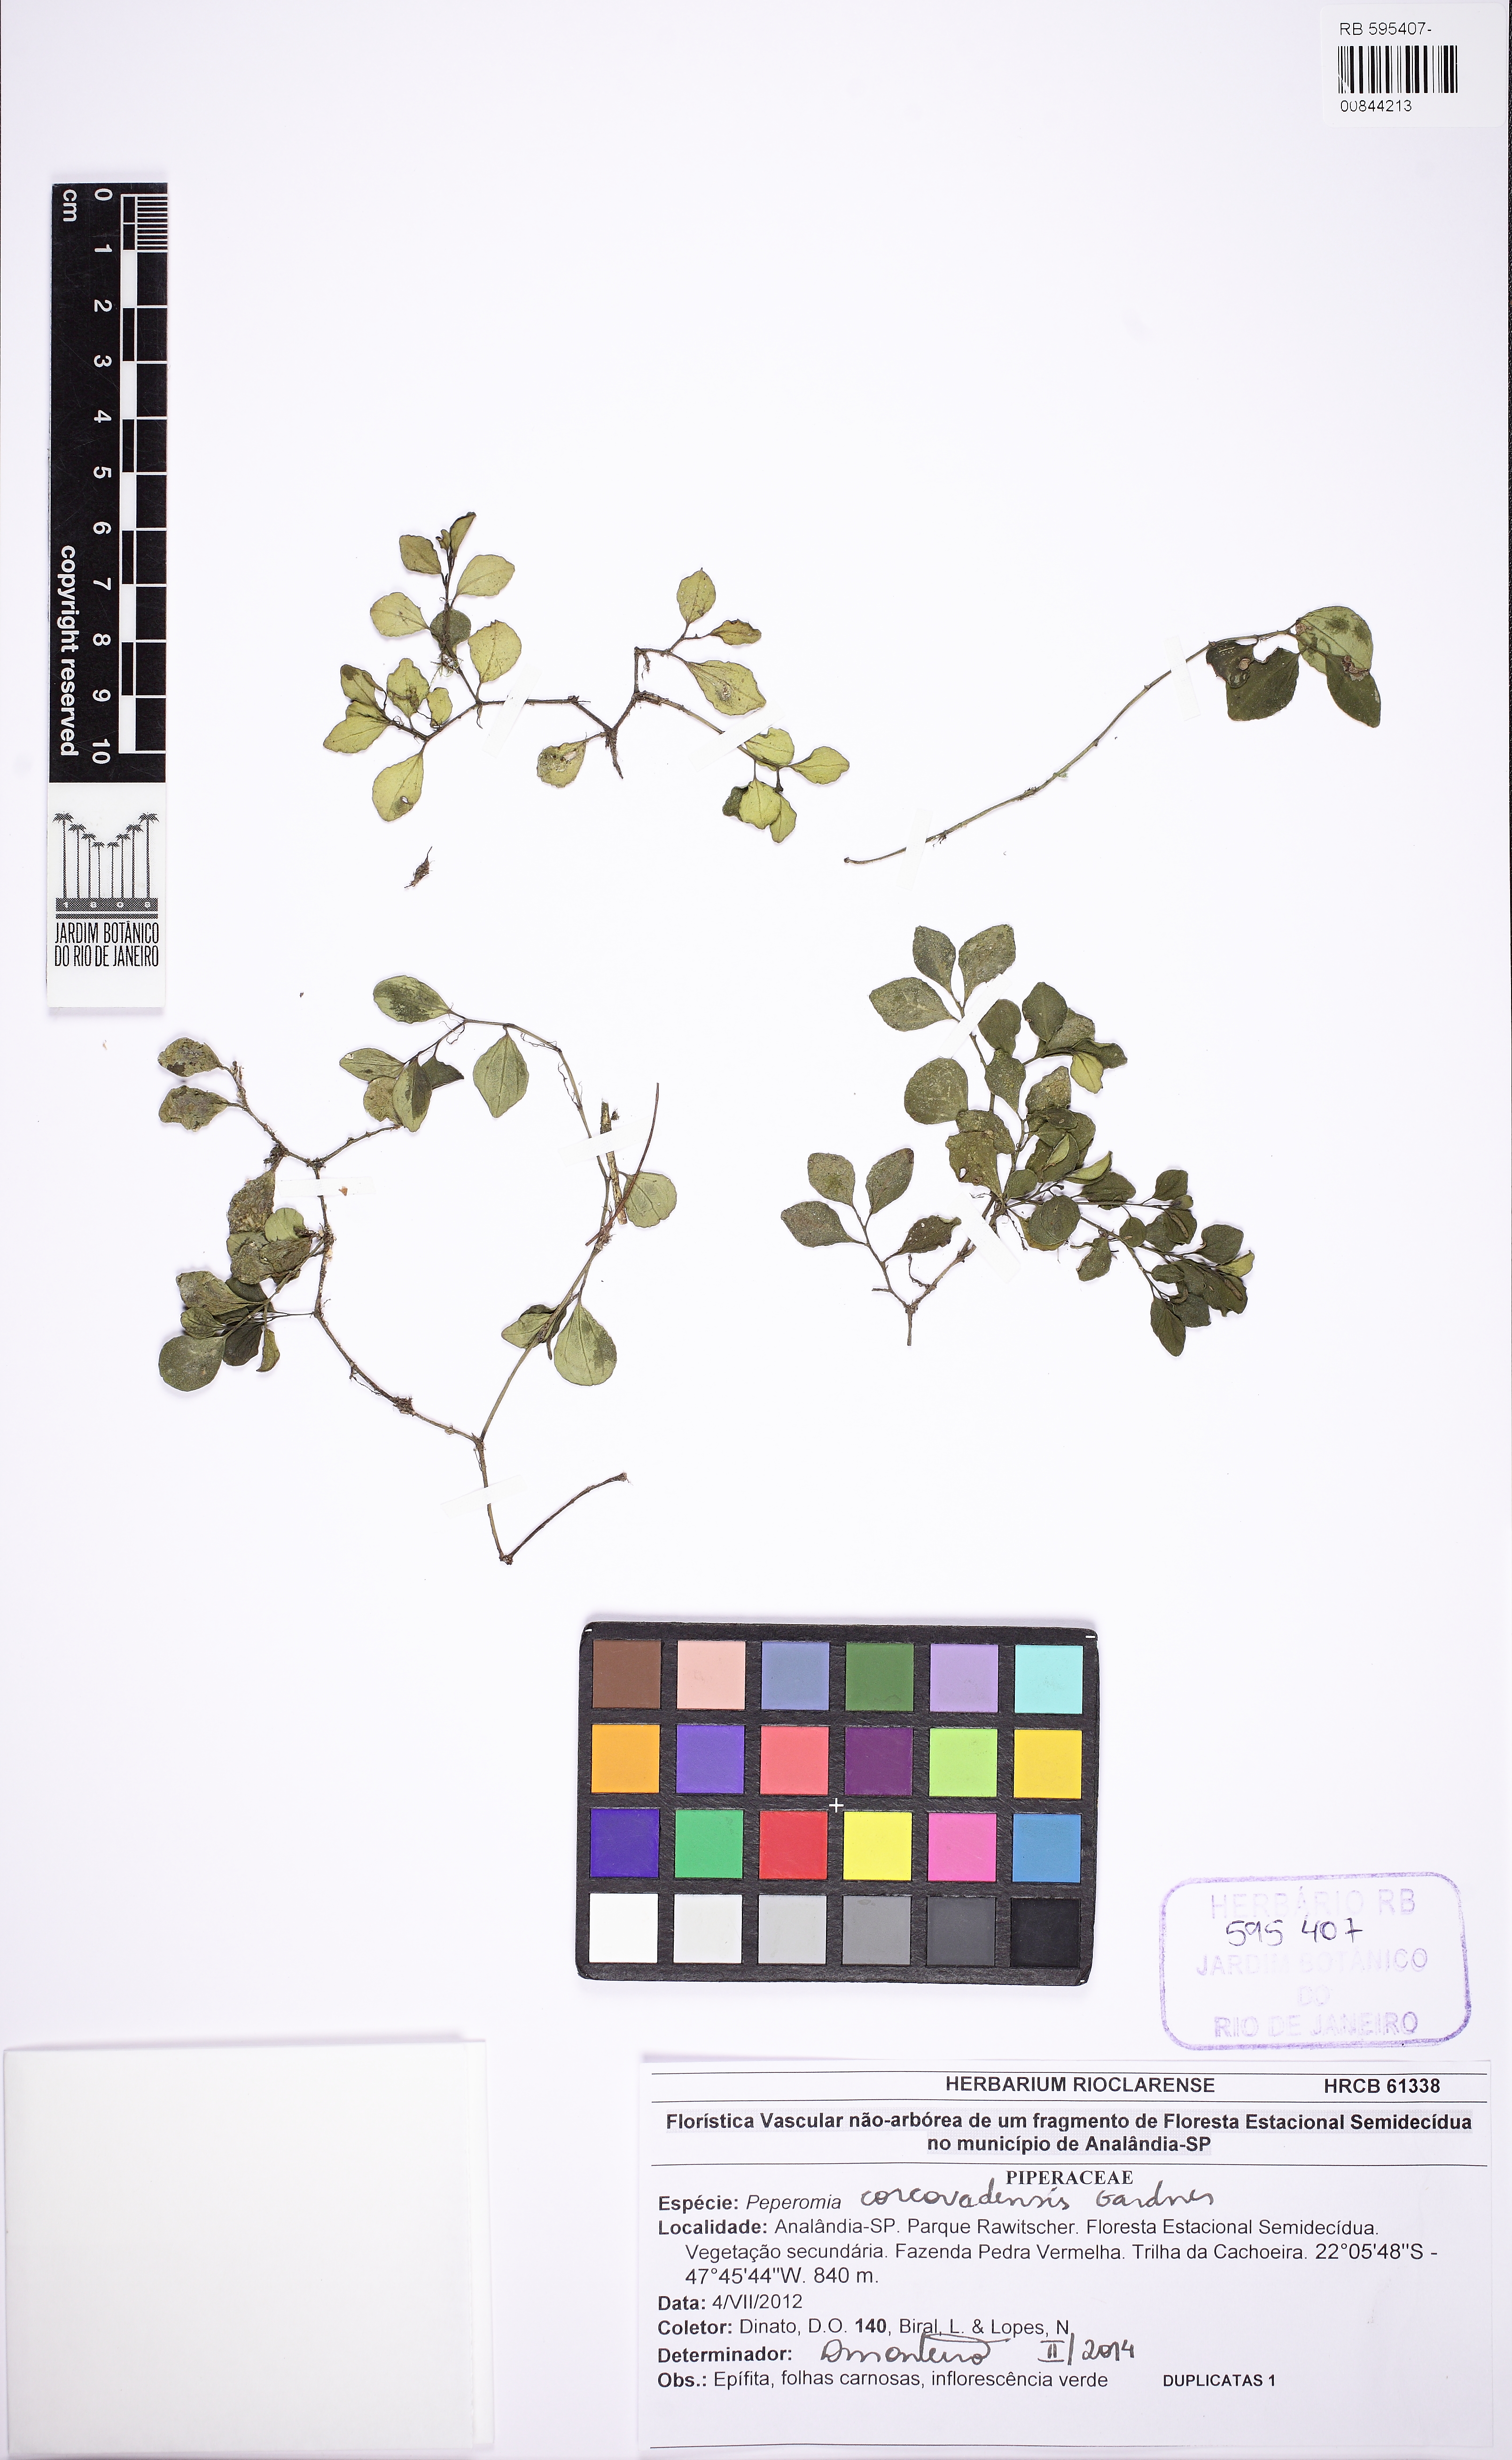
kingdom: Plantae
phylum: Tracheophyta
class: Magnoliopsida
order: Piperales
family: Piperaceae
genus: Peperomia
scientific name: Peperomia corcovadensis
